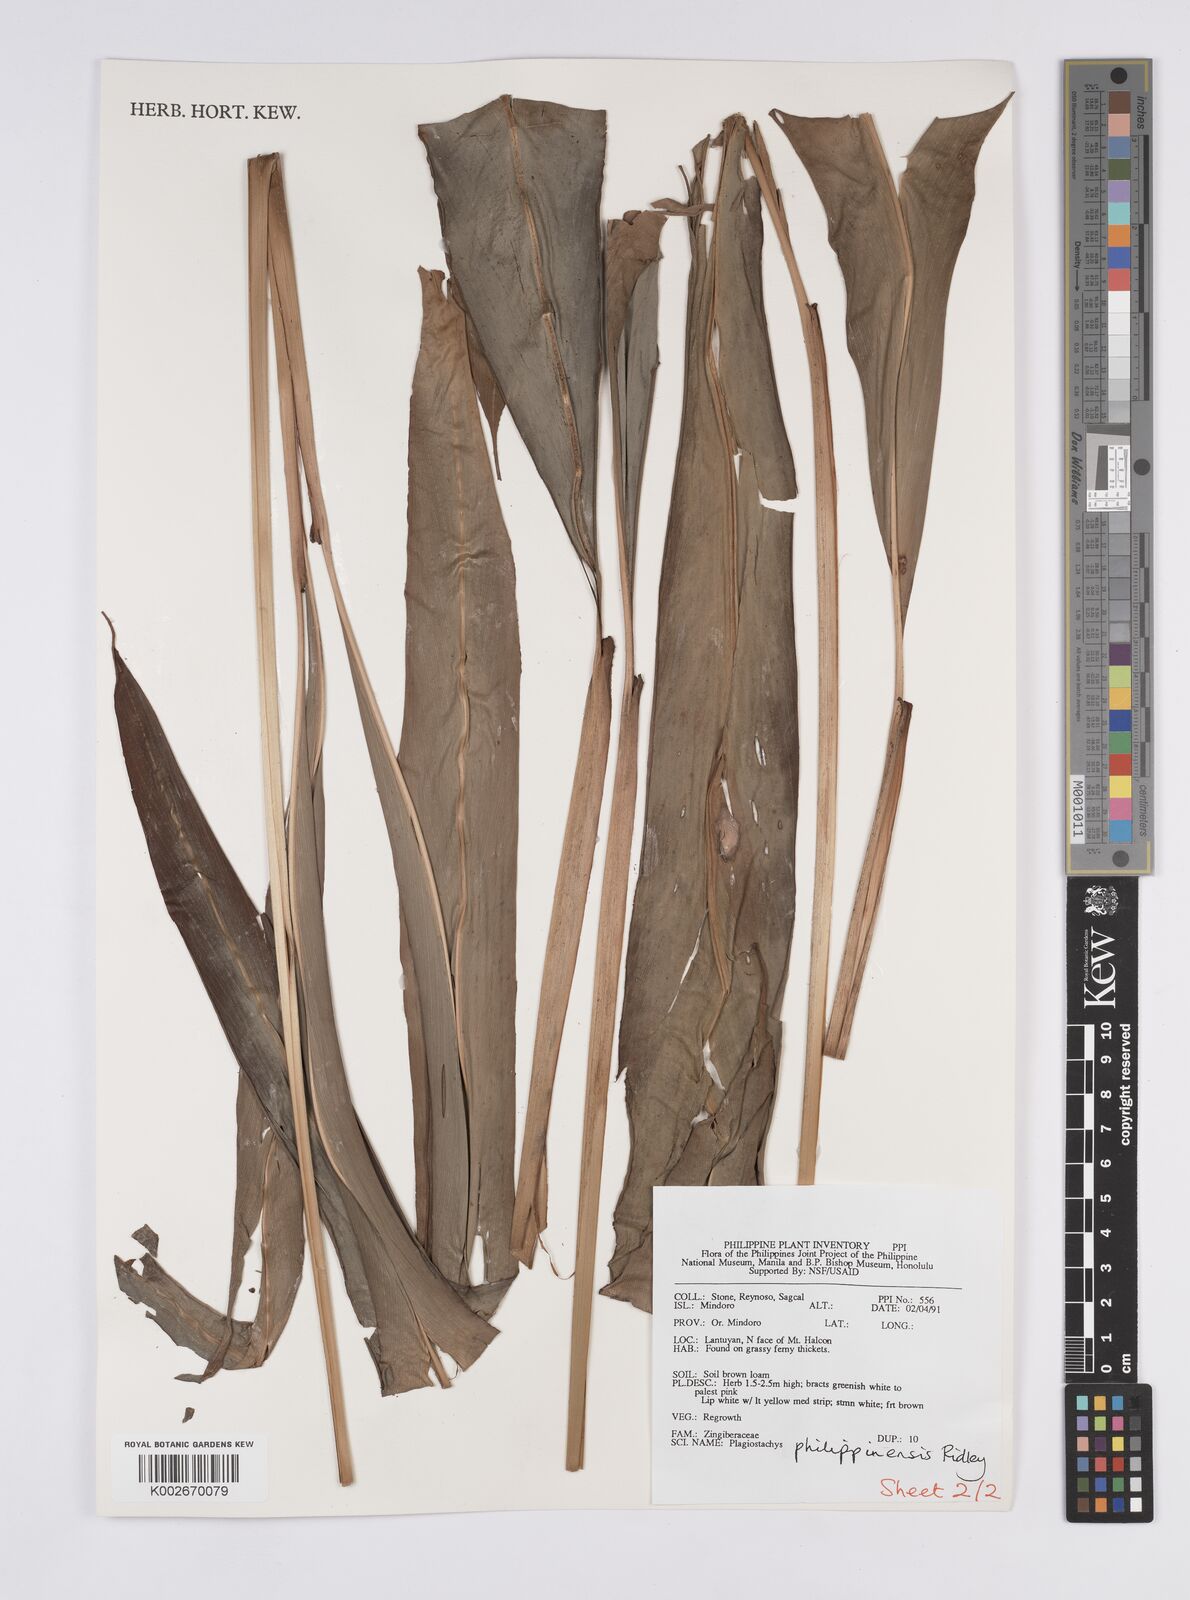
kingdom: Plantae
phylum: Tracheophyta
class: Liliopsida
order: Zingiberales
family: Zingiberaceae
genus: Plagiostachys
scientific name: Plagiostachys philippinensis
